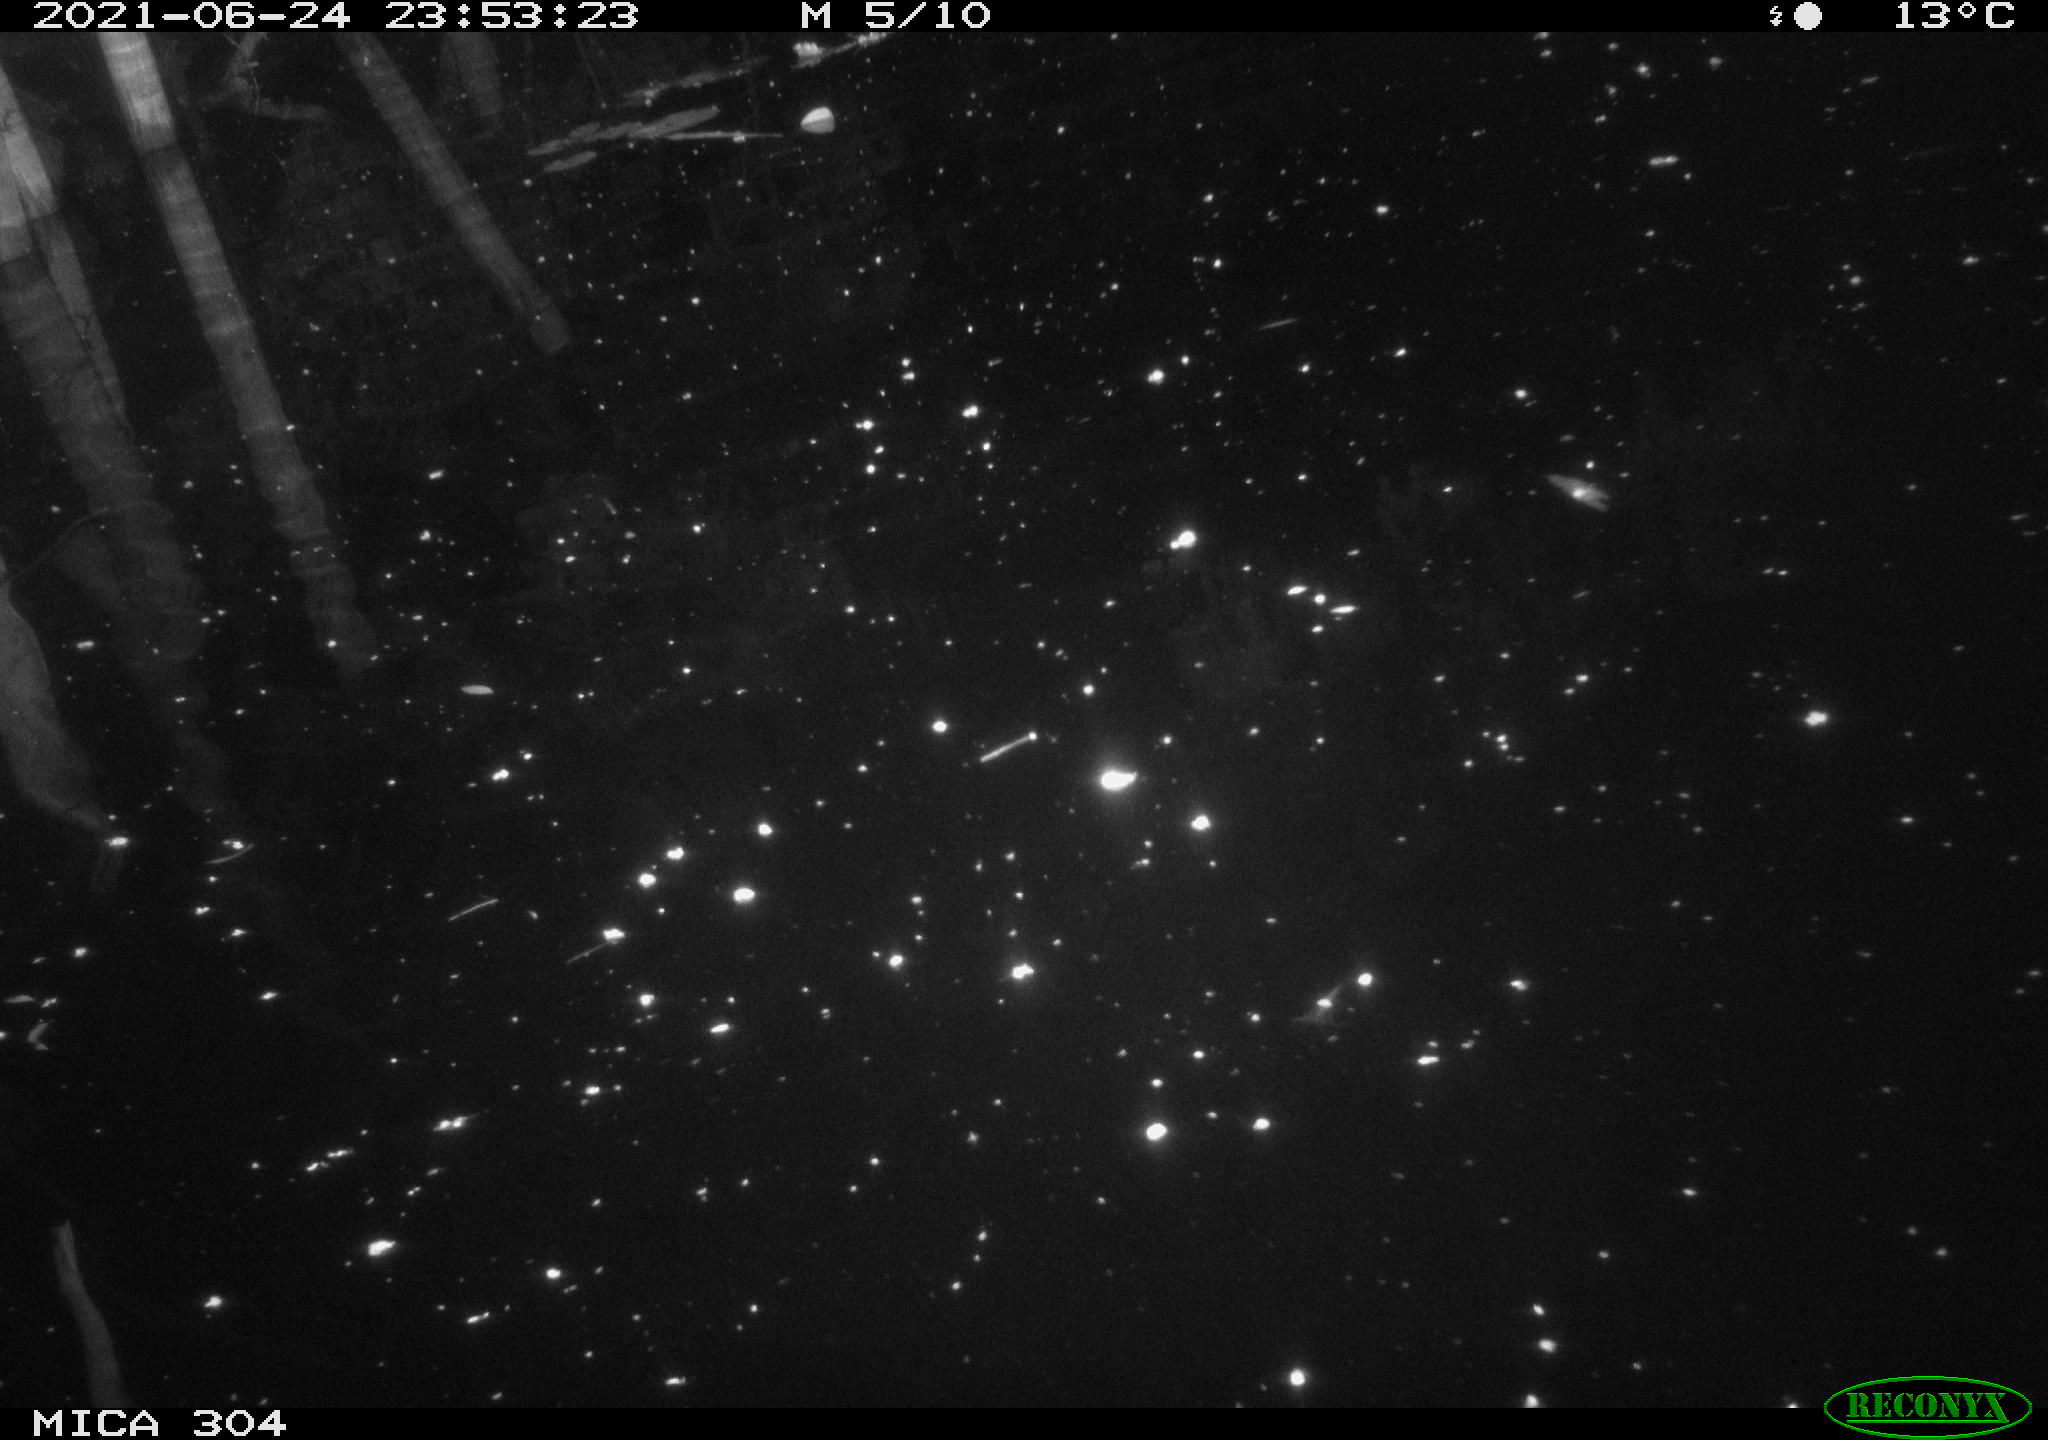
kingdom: Animalia
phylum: Chordata
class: Aves
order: Anseriformes
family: Anatidae
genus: Anas
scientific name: Anas platyrhynchos
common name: Mallard
